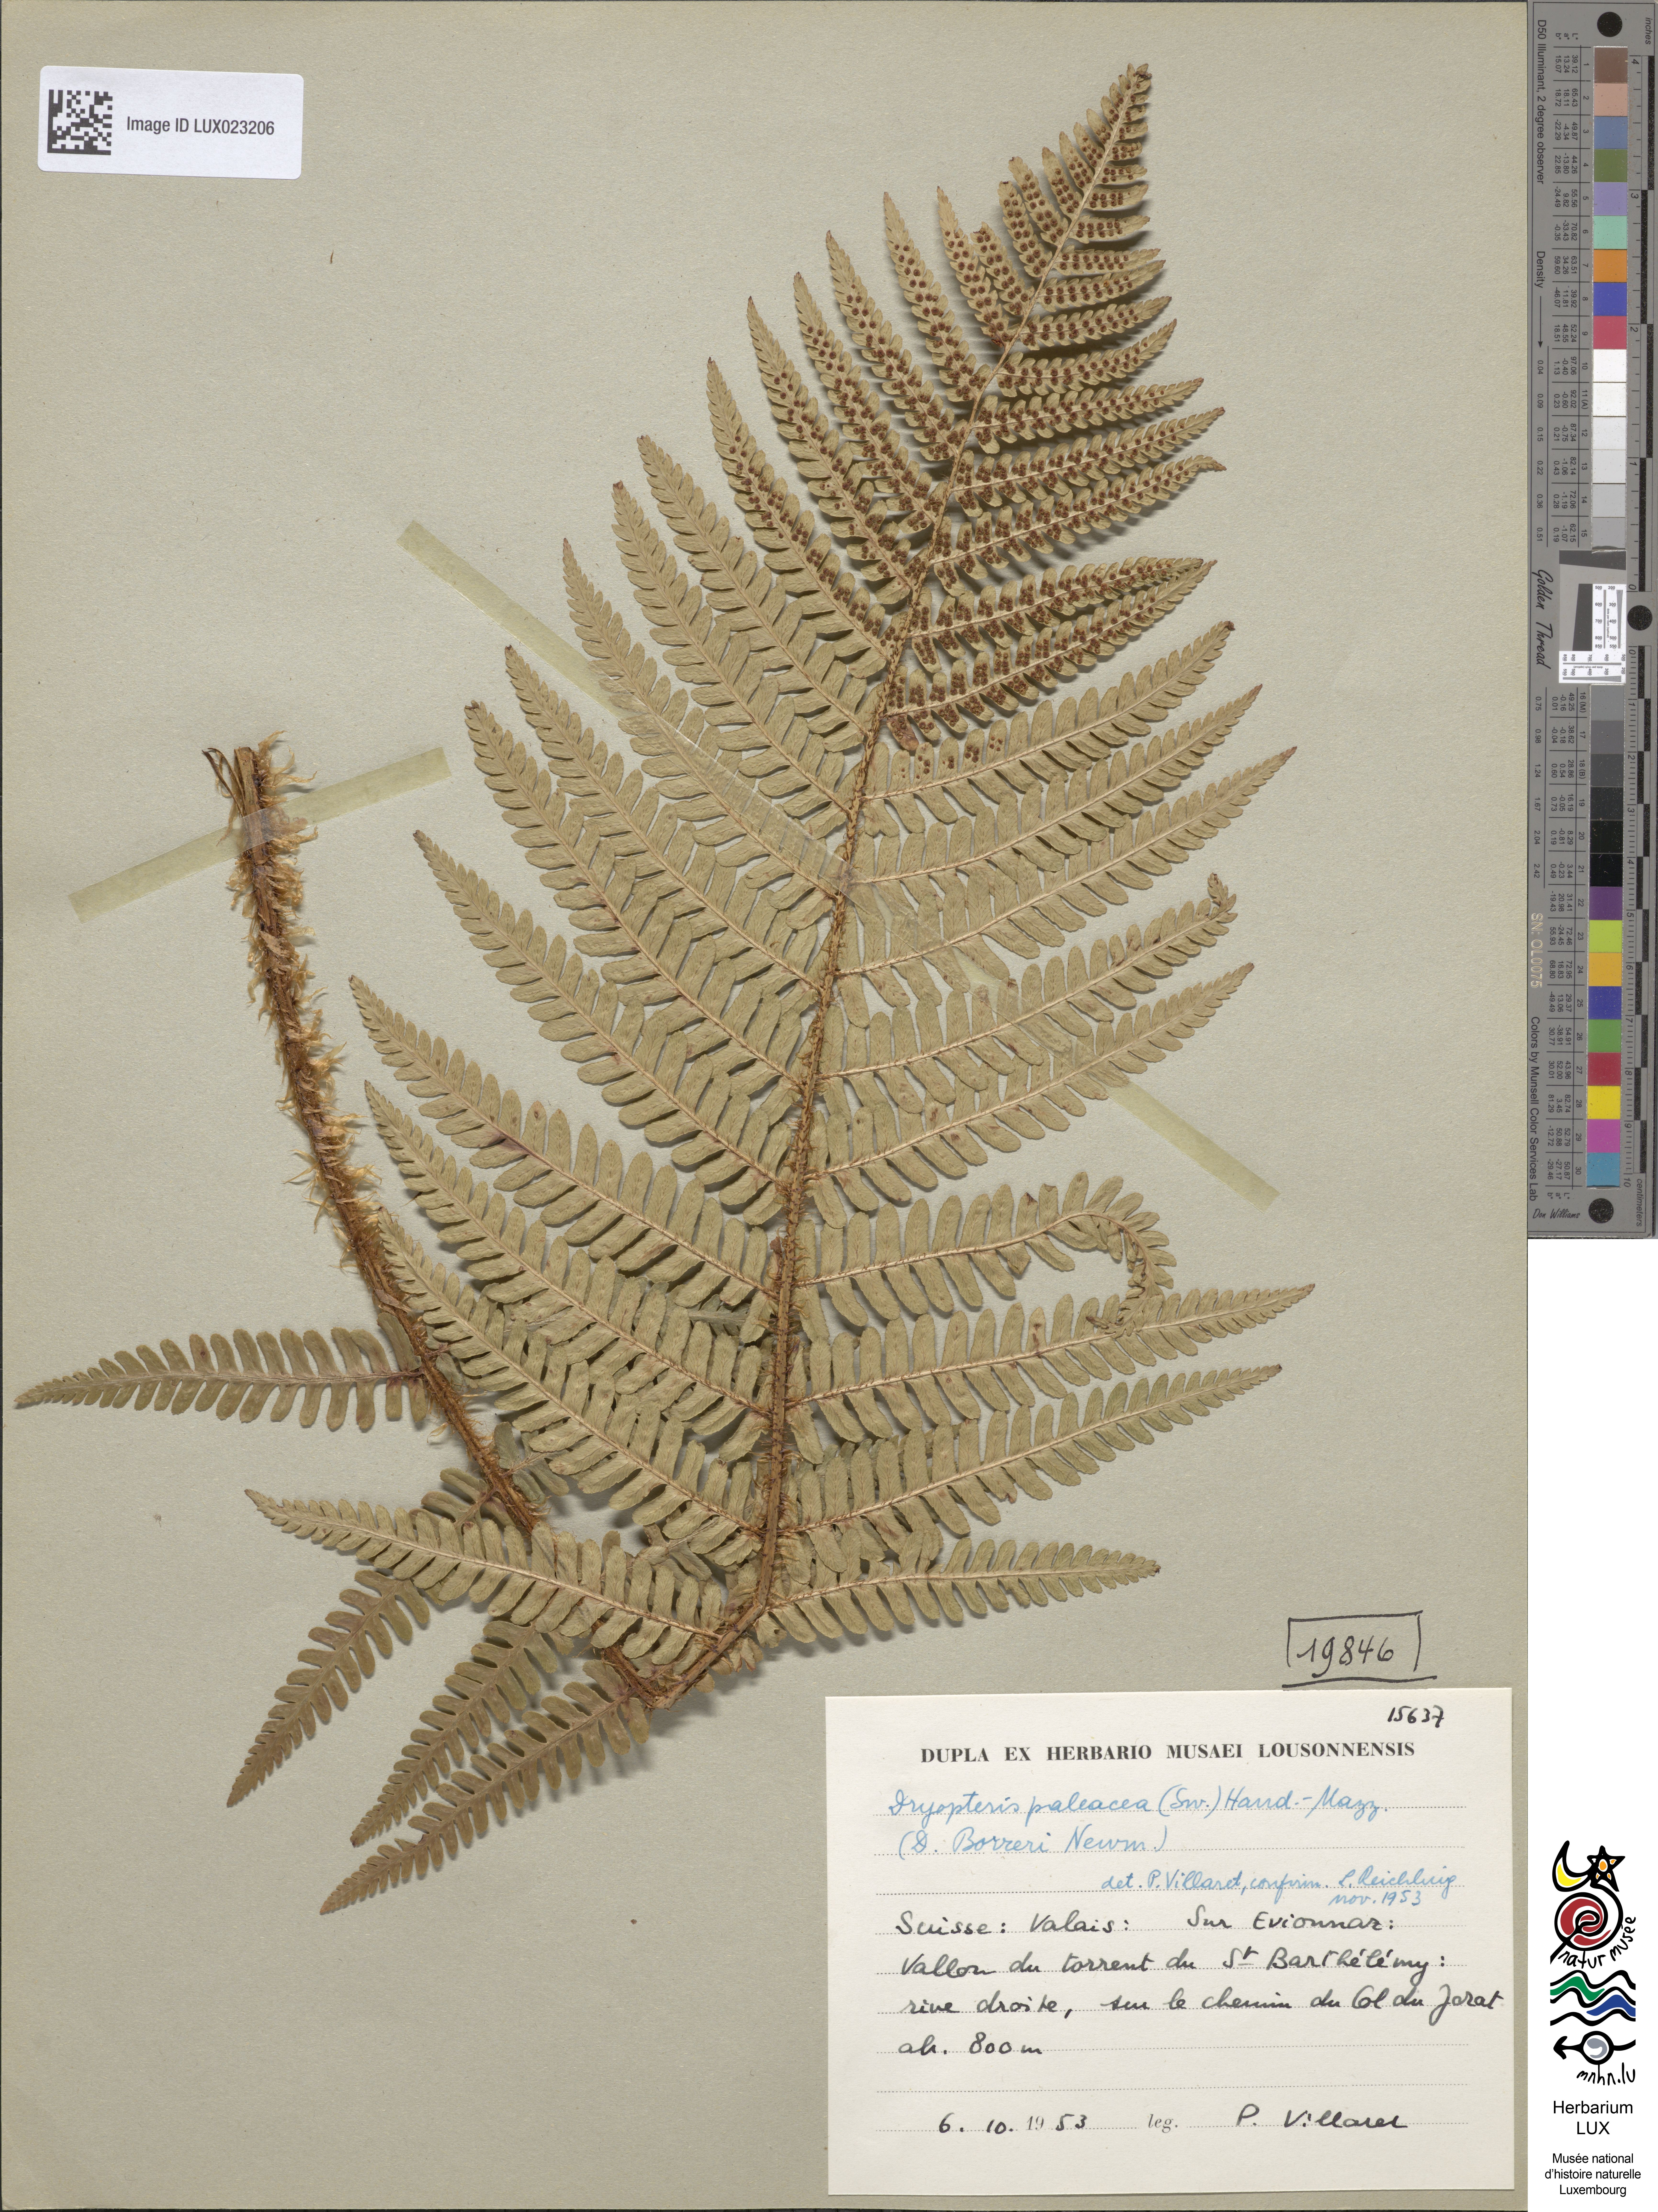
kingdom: Plantae
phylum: Tracheophyta
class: Polypodiopsida
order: Polypodiales
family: Dryopteridaceae
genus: Dryopteris
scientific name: Dryopteris paleacea
